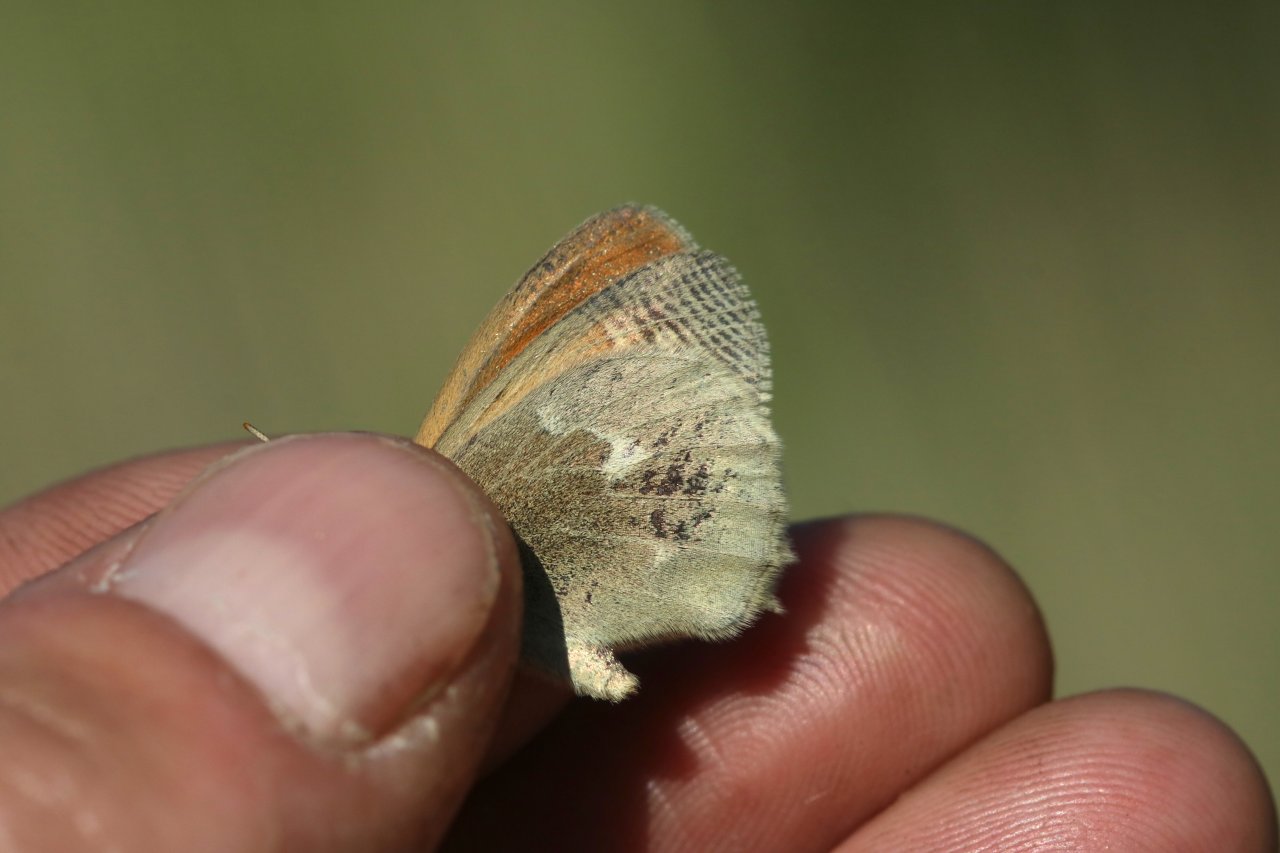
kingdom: Animalia
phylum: Arthropoda
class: Insecta
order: Lepidoptera
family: Nymphalidae
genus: Coenonympha
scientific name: Coenonympha tullia
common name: Large Heath
